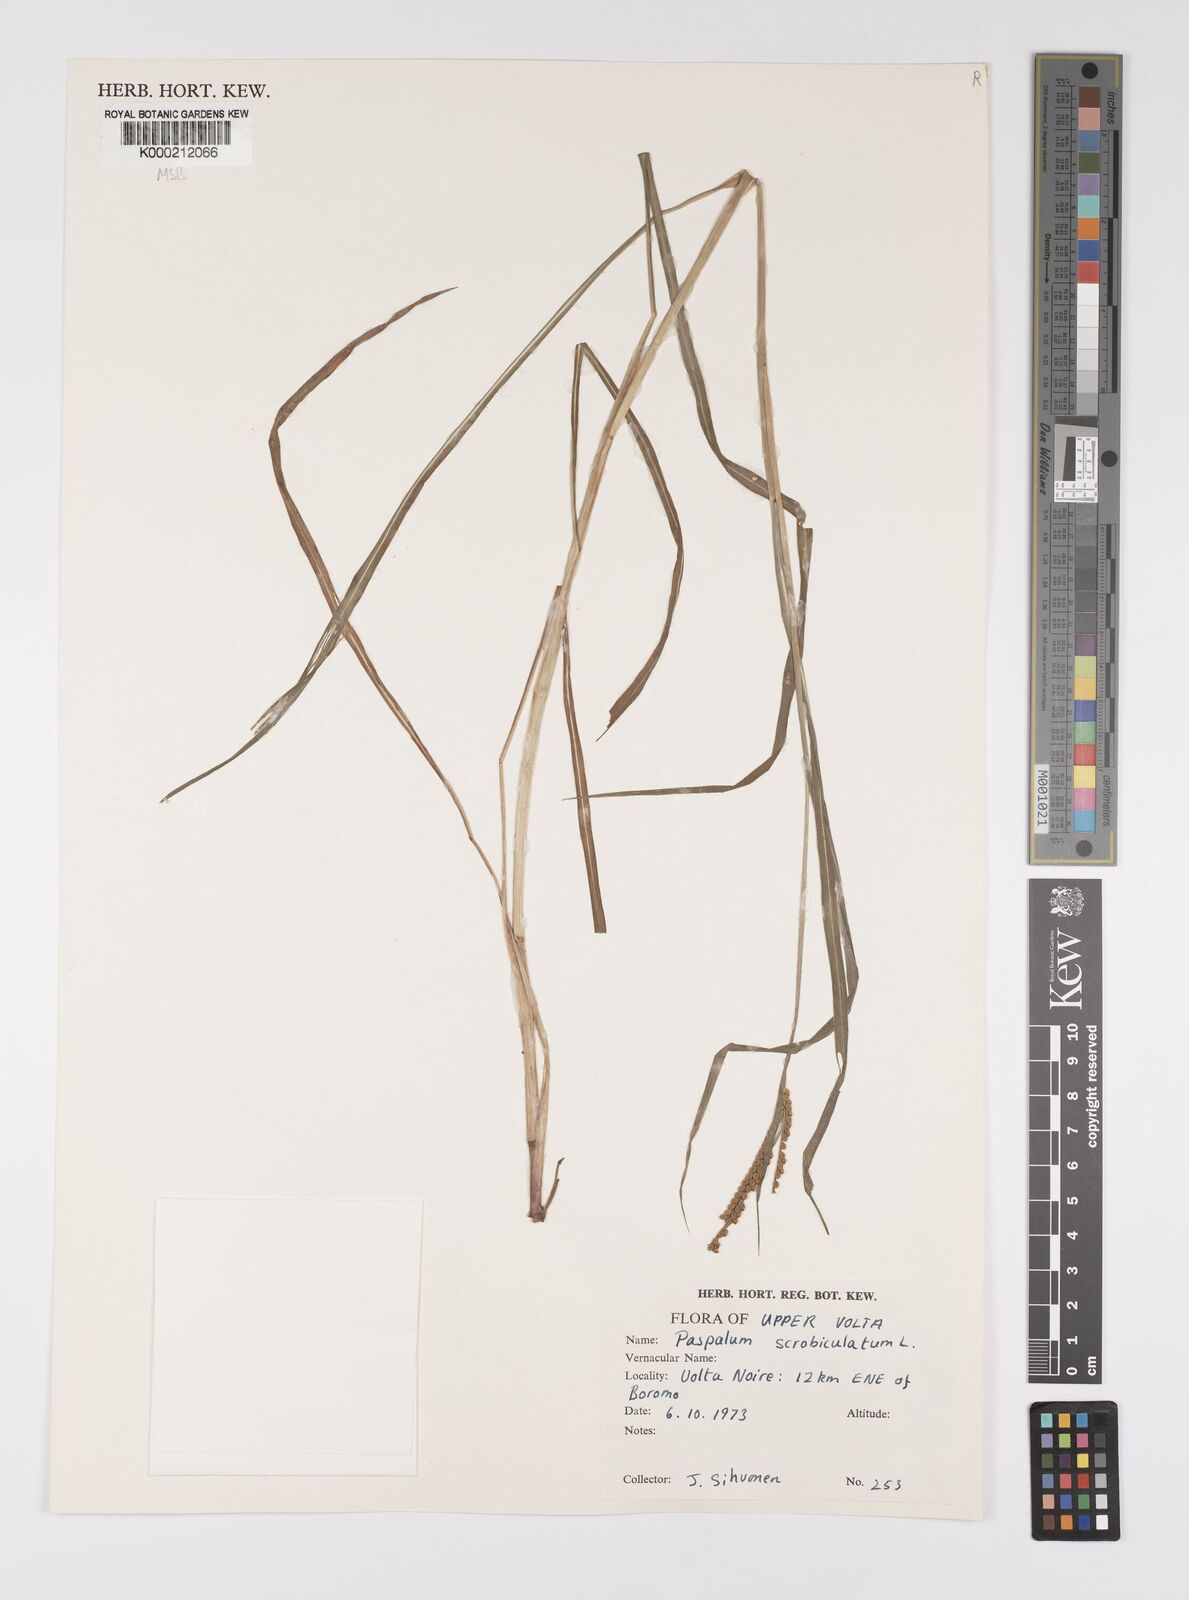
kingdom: Plantae
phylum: Tracheophyta
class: Liliopsida
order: Poales
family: Poaceae
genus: Paspalum
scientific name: Paspalum scrobiculatum
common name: Kodo millet
